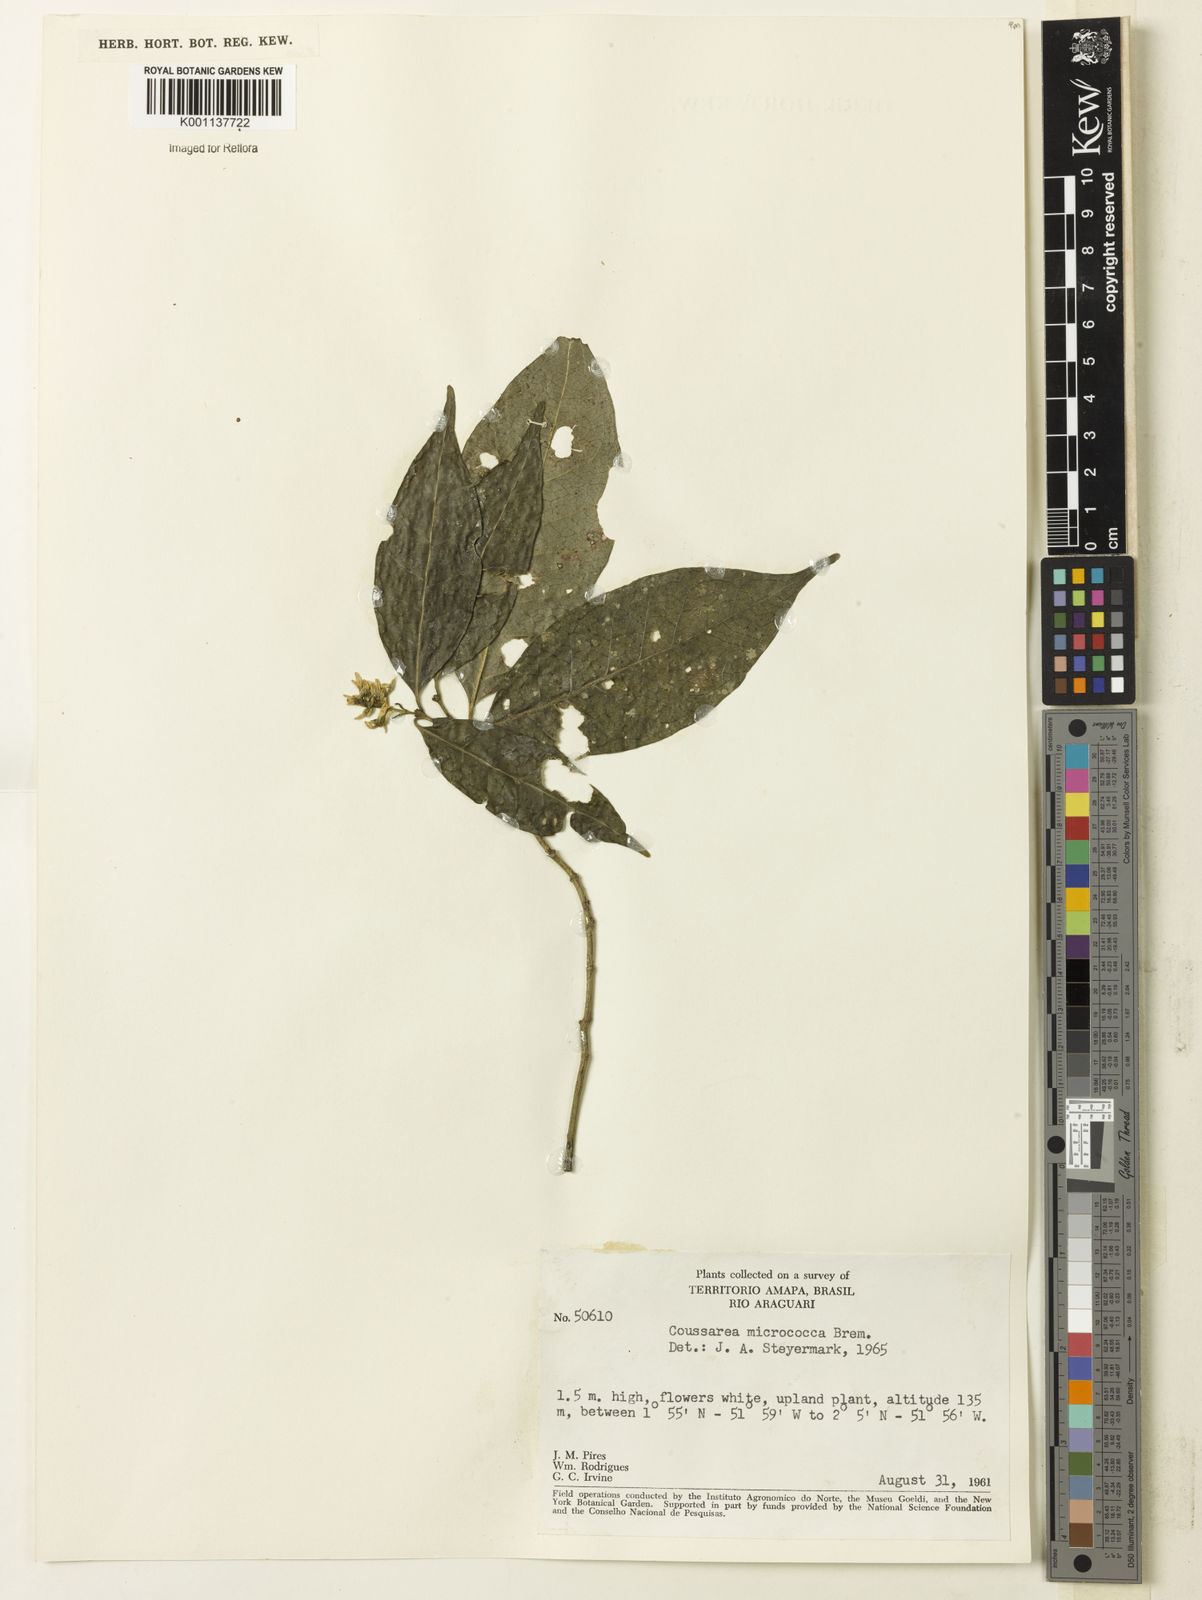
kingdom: Plantae
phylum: Tracheophyta
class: Magnoliopsida
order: Gentianales
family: Rubiaceae
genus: Coussarea
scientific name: Coussarea micrococca
